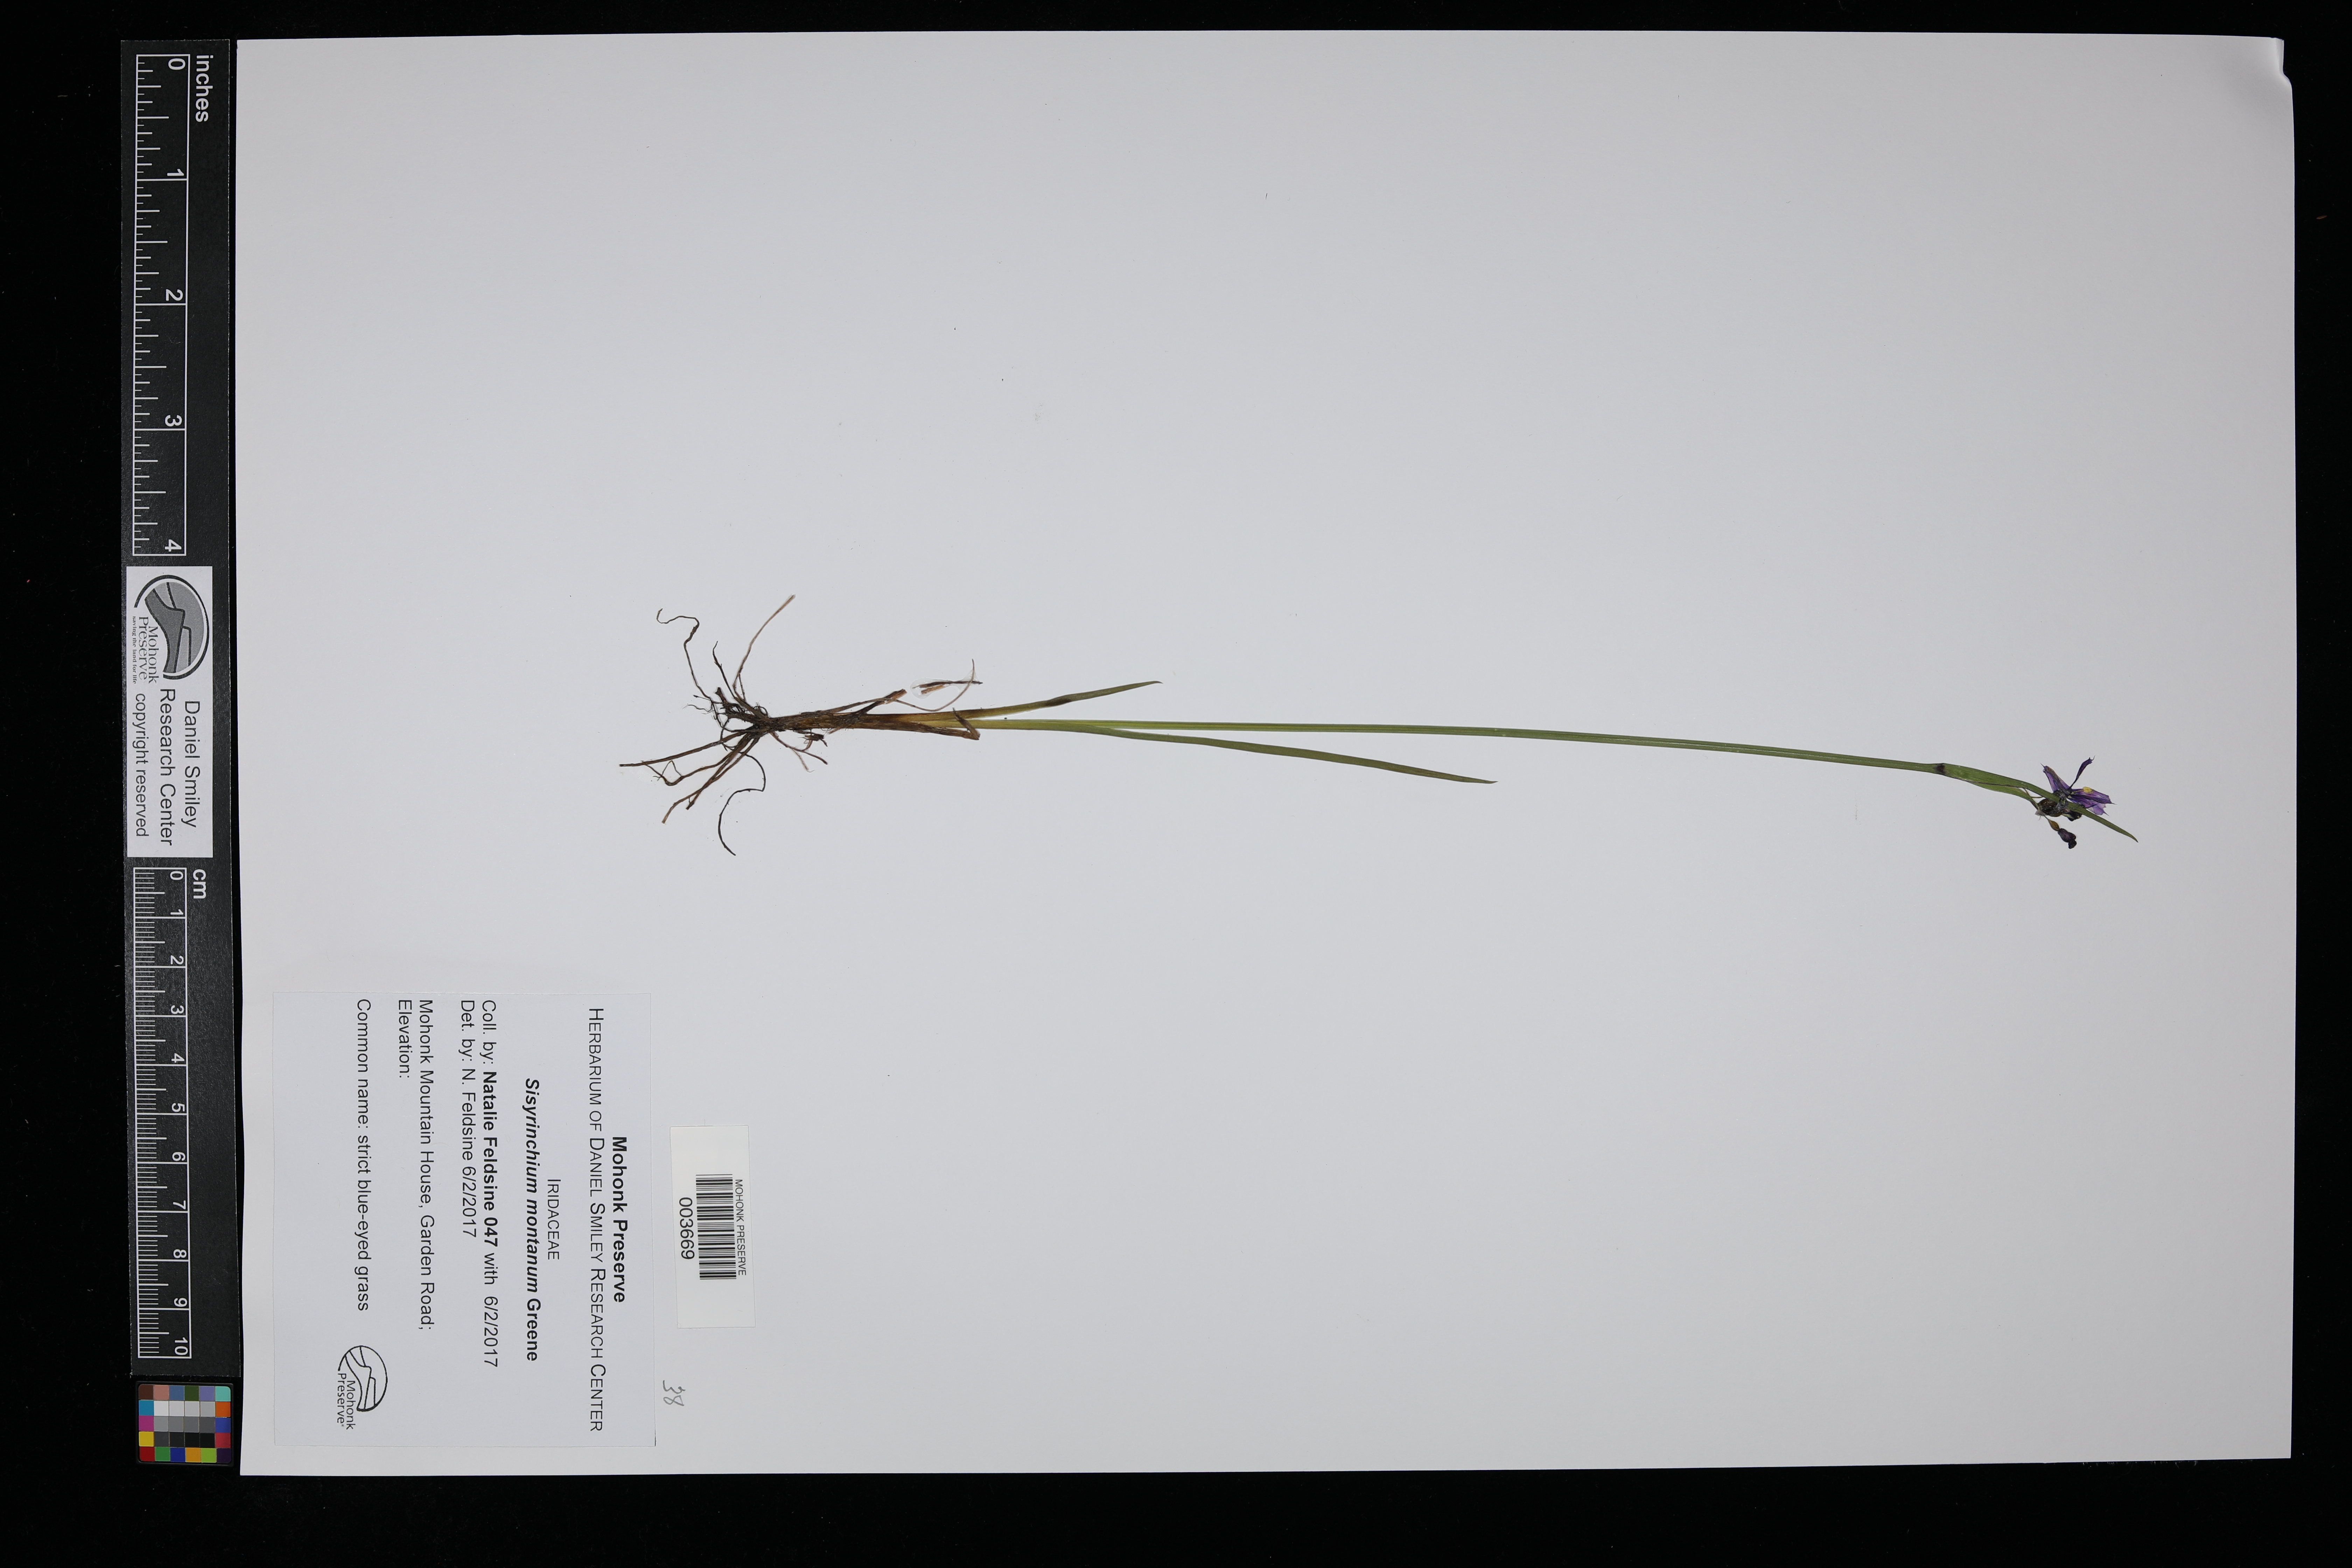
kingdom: Plantae
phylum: Tracheophyta
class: Liliopsida
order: Asparagales
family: Iridaceae
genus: Sisyrinchium
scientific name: Sisyrinchium montanum
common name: American blue-eyed-grass
